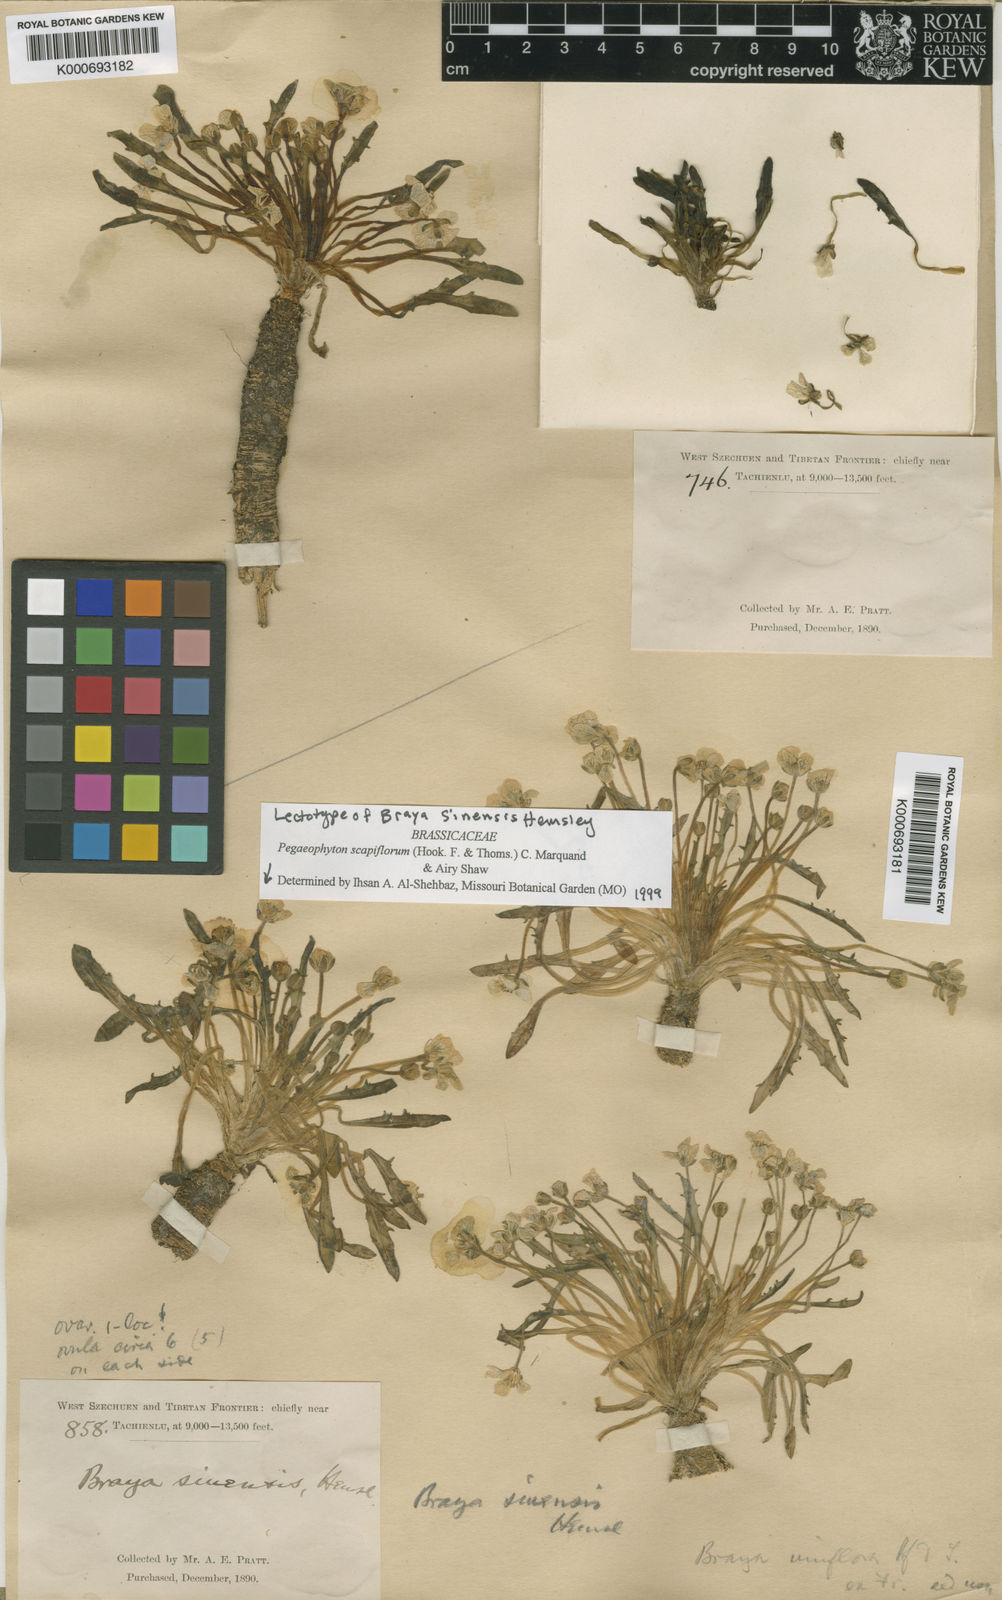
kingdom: Plantae
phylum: Tracheophyta
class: Magnoliopsida
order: Brassicales
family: Brassicaceae
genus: Eutrema
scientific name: Eutrema scapiflorum
